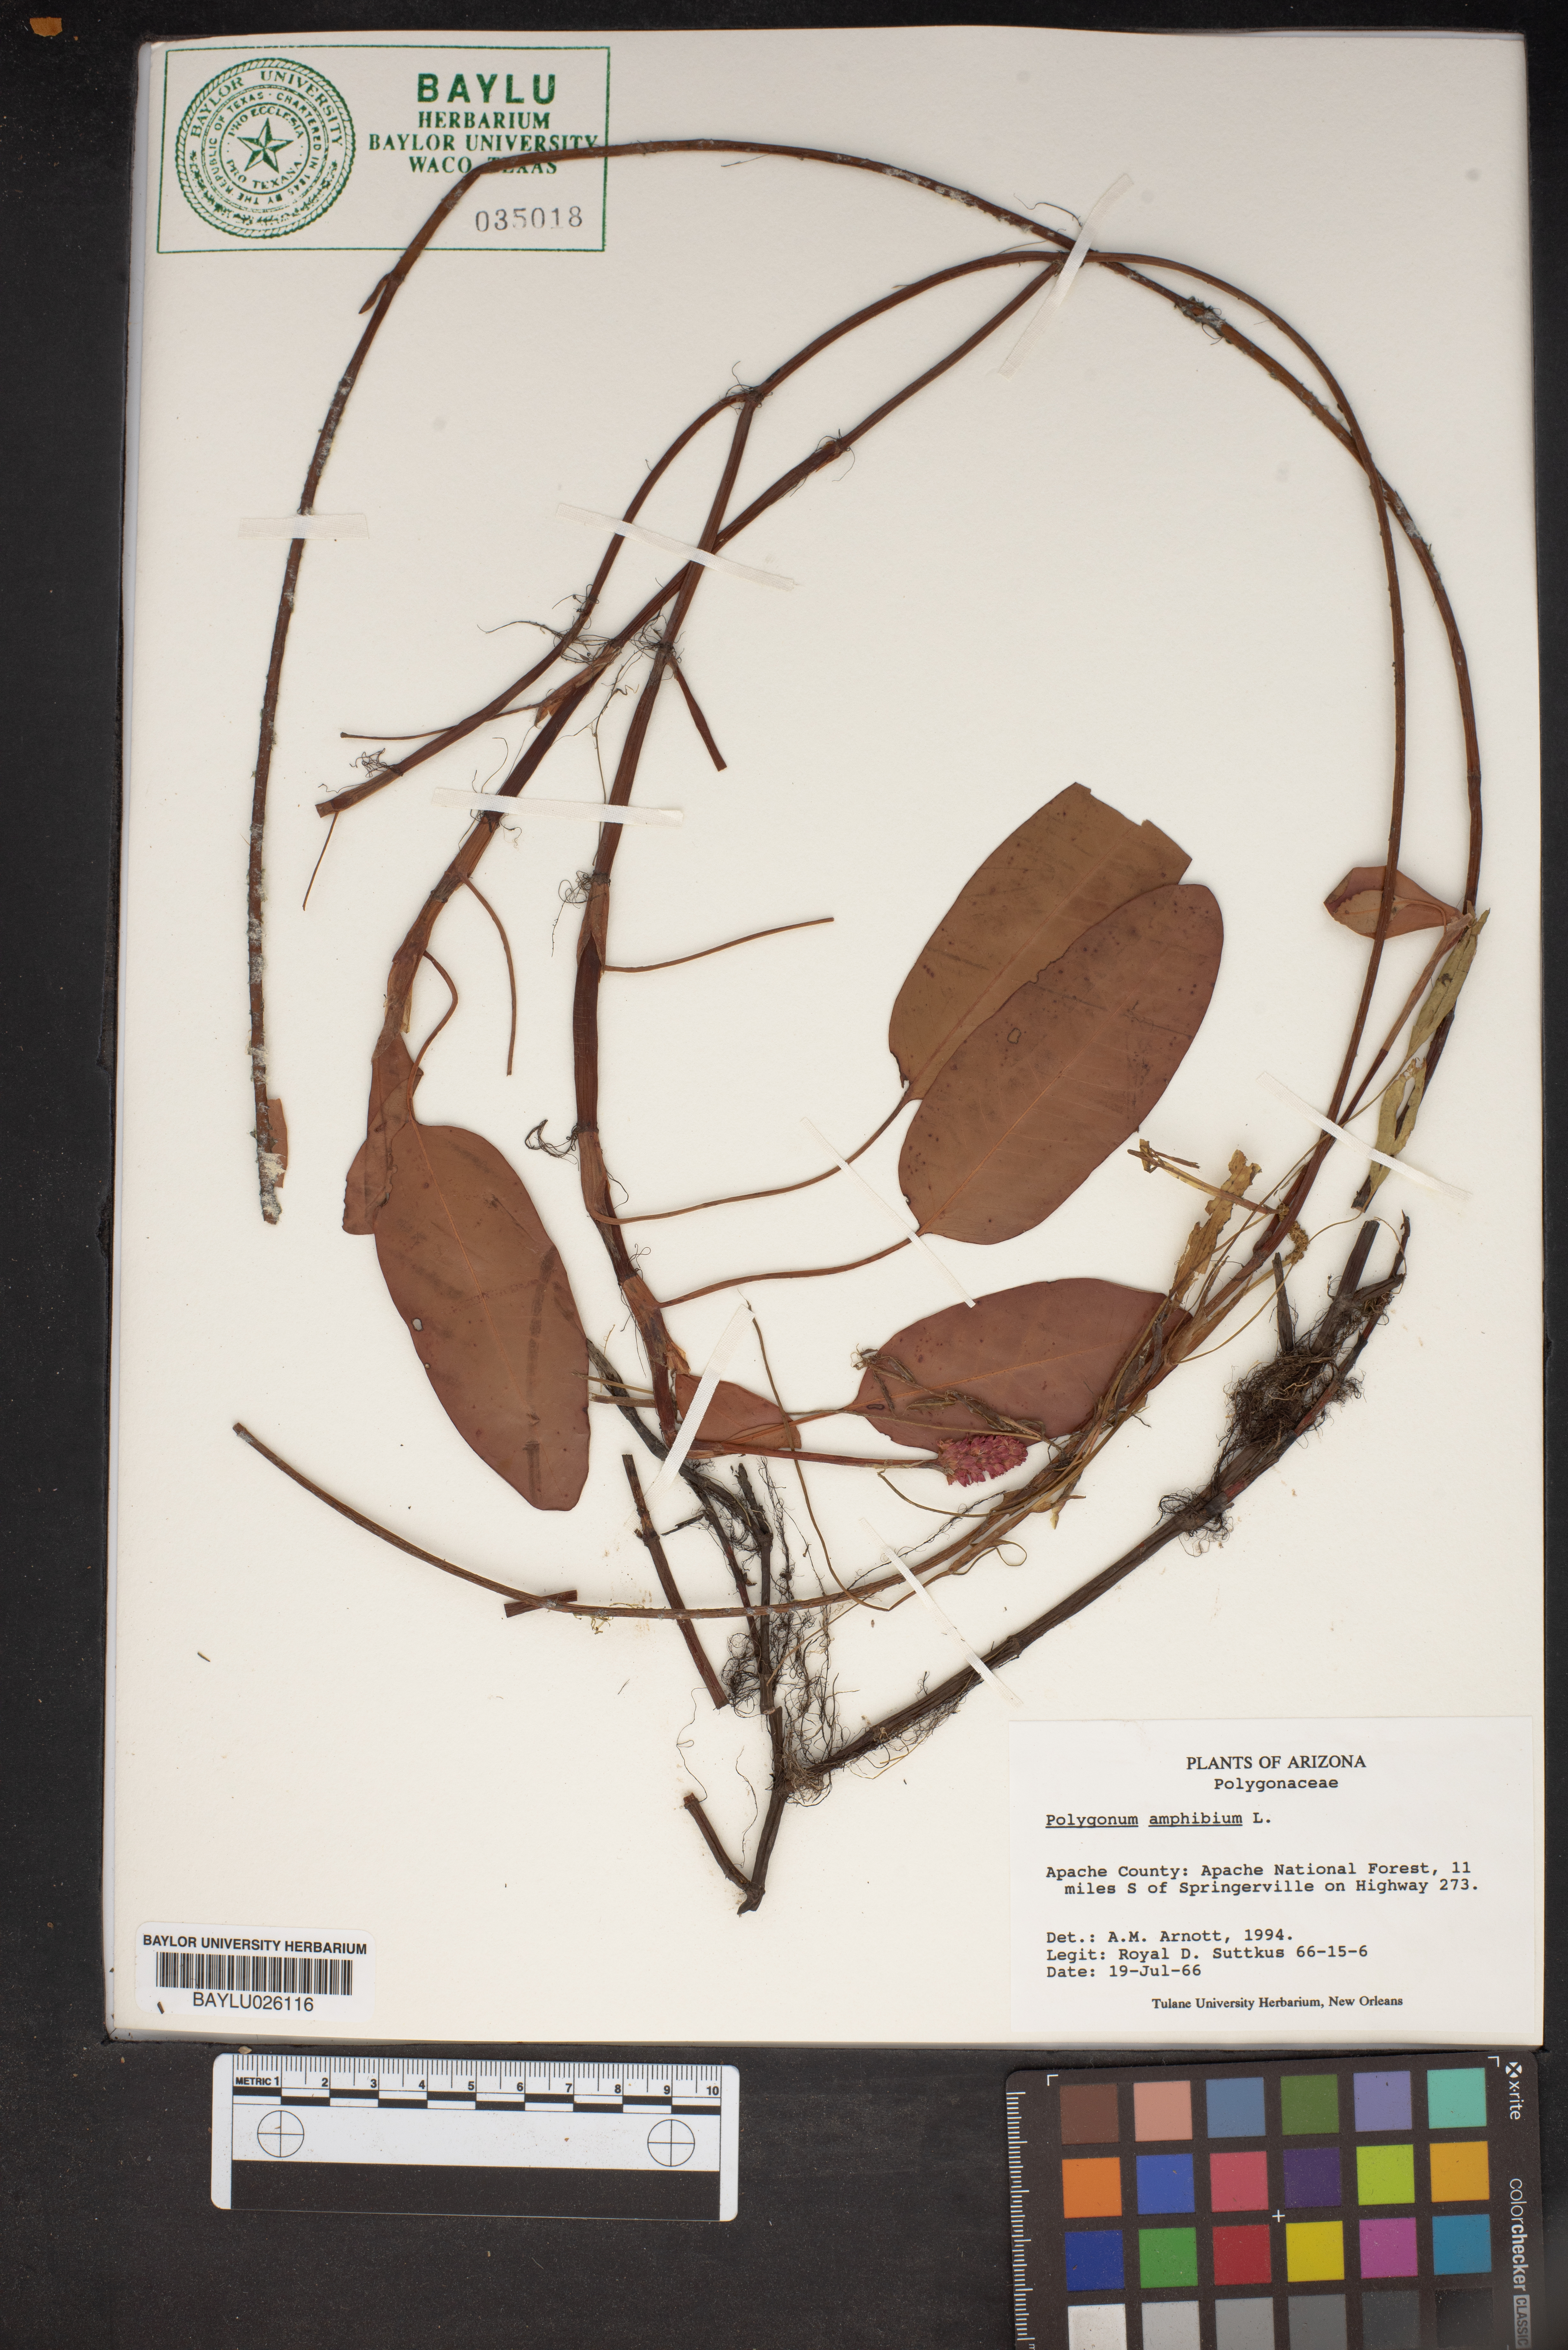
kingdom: Plantae
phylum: Tracheophyta
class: Magnoliopsida
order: Caryophyllales
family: Polygonaceae
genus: Persicaria
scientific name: Persicaria amphibia
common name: Amphibious bistort
